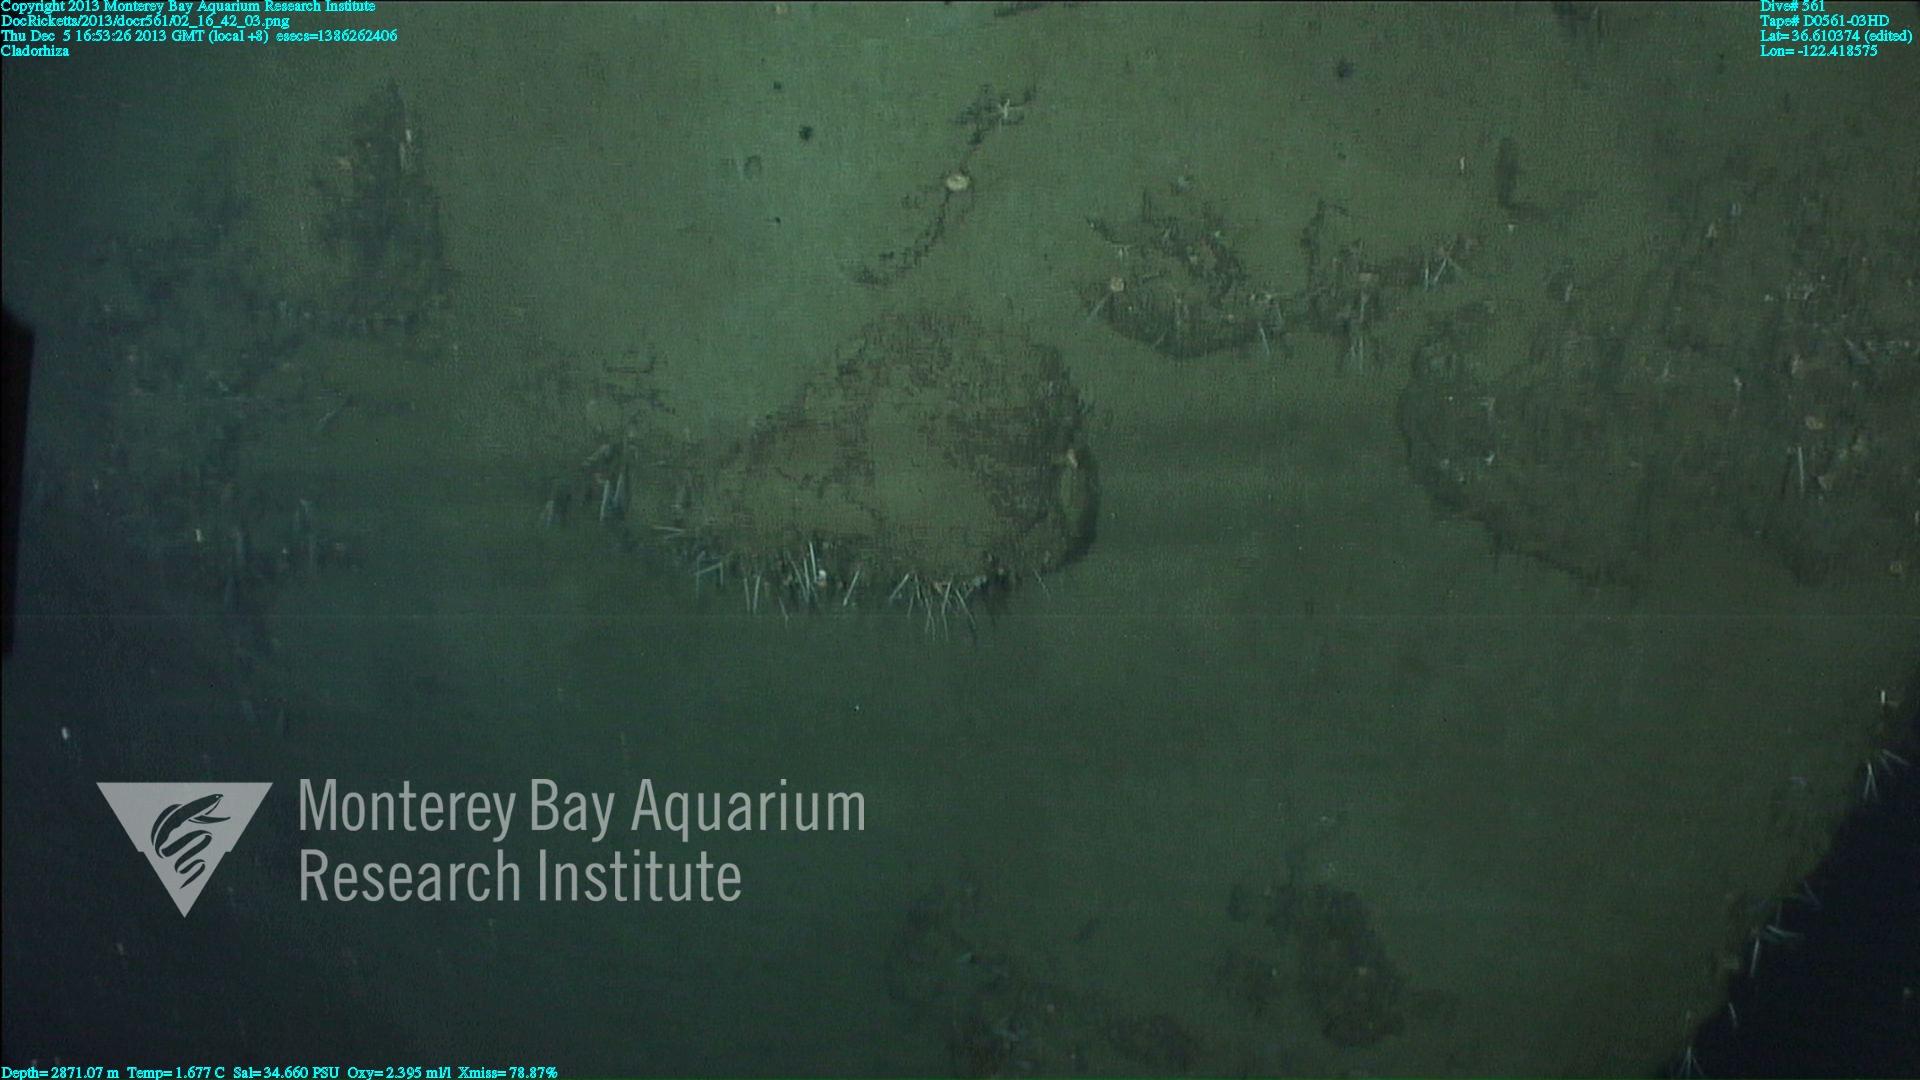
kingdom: Animalia
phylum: Porifera
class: Demospongiae
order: Poecilosclerida
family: Cladorhizidae
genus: Cladorhiza
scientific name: Cladorhiza
